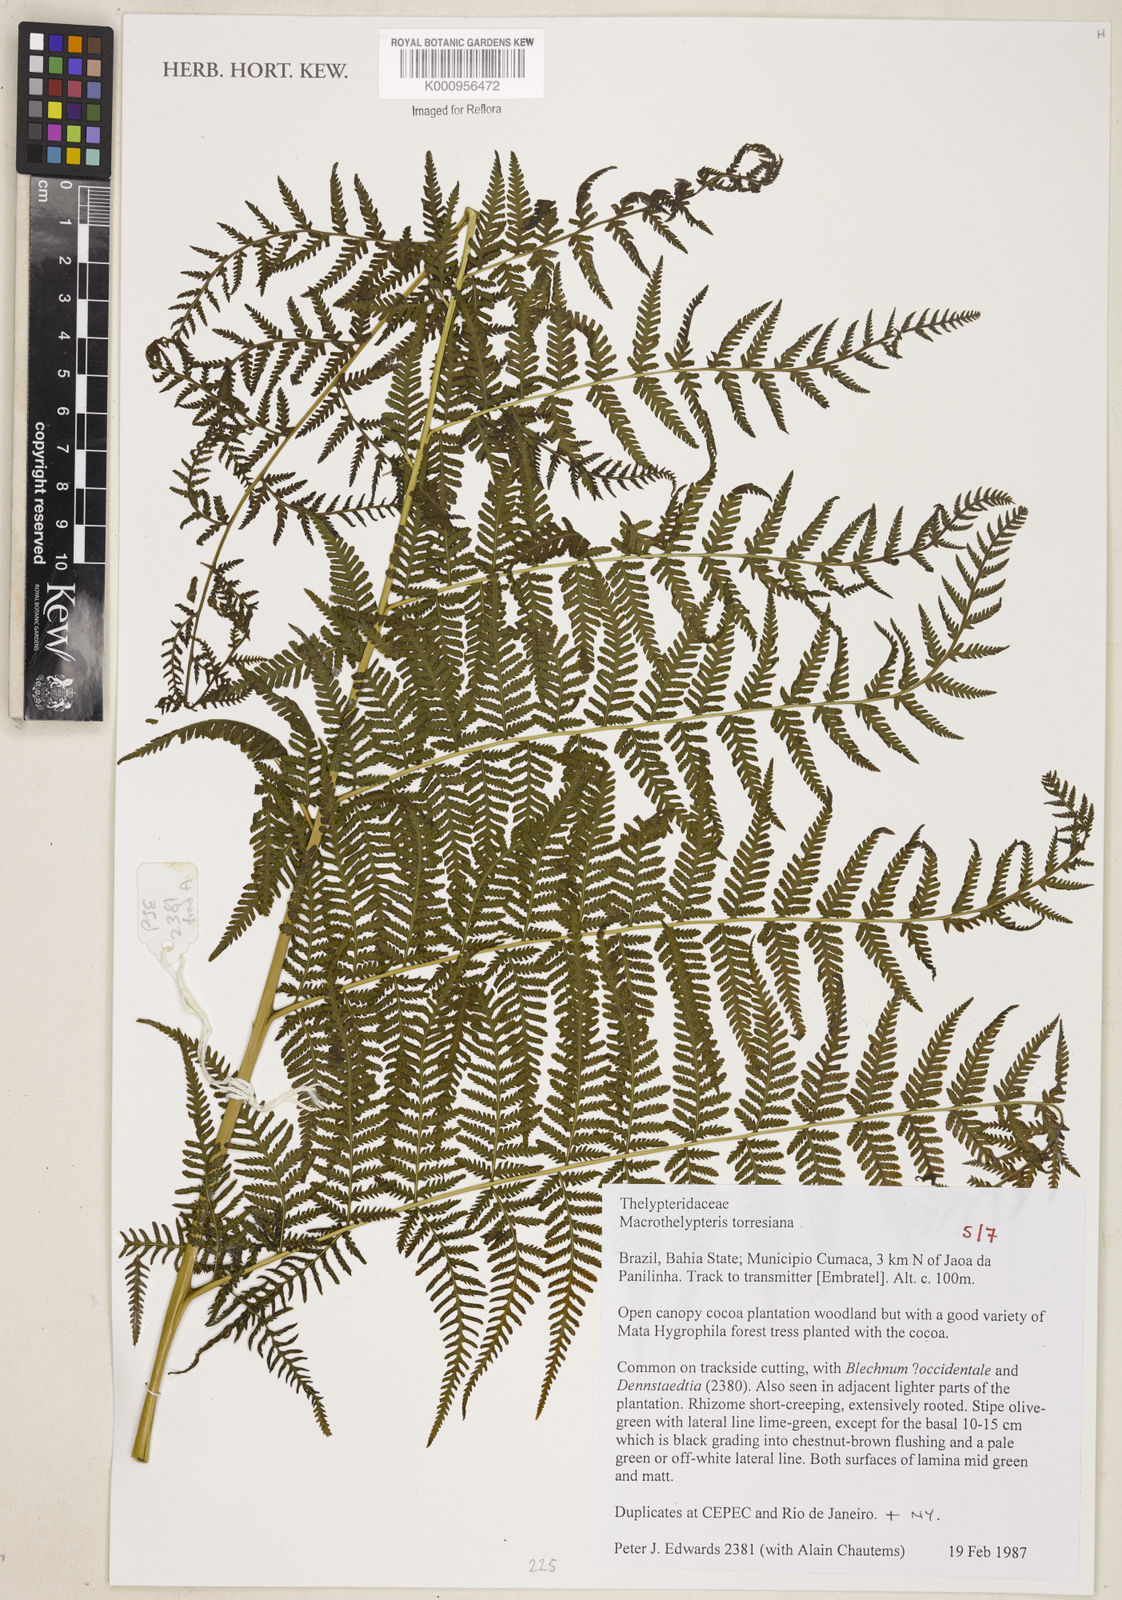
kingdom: Plantae
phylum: Tracheophyta
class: Polypodiopsida
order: Polypodiales
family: Thelypteridaceae
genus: Macrothelypteris
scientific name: Macrothelypteris torresiana
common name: Swordfern
